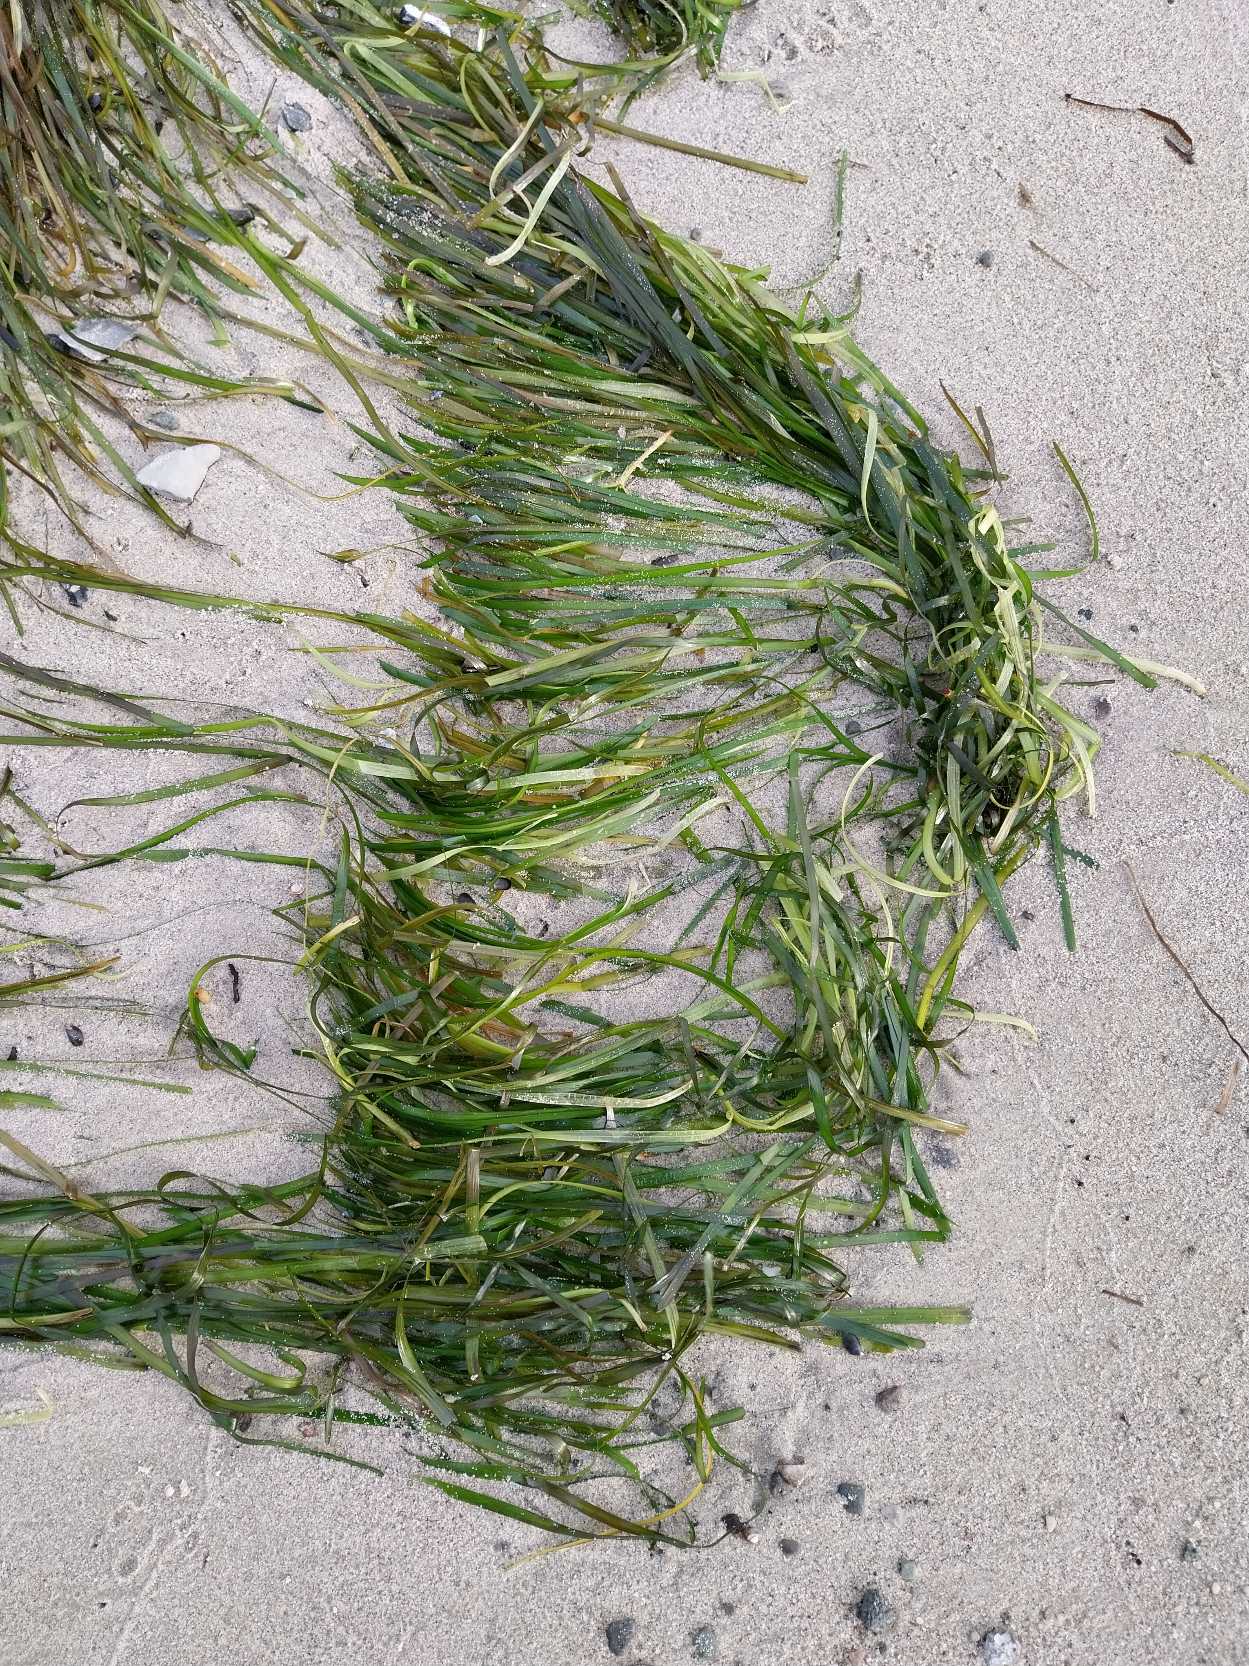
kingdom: Plantae
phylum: Tracheophyta
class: Liliopsida
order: Alismatales
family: Zosteraceae
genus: Zostera
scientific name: Zostera marina
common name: Almindelig bændeltang
